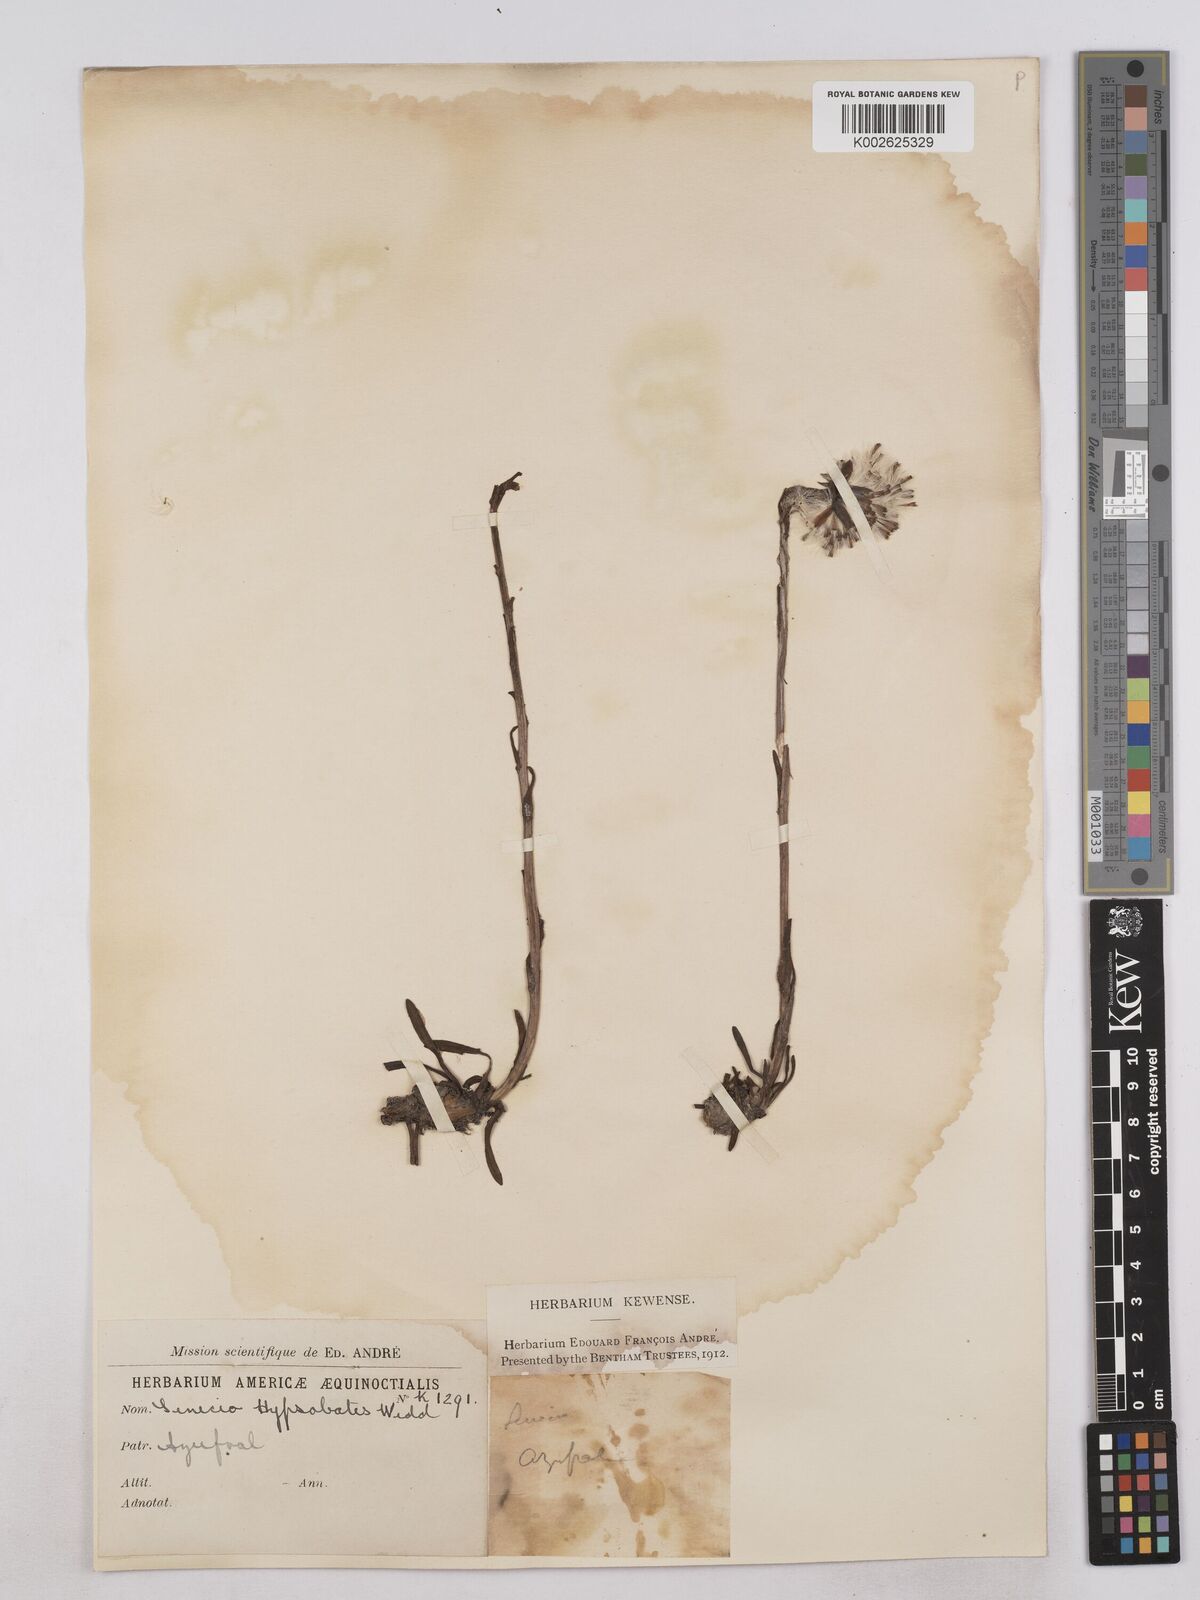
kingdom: Plantae
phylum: Tracheophyta
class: Magnoliopsida
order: Asterales
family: Asteraceae
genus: Senecio
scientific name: Senecio hypsobates
